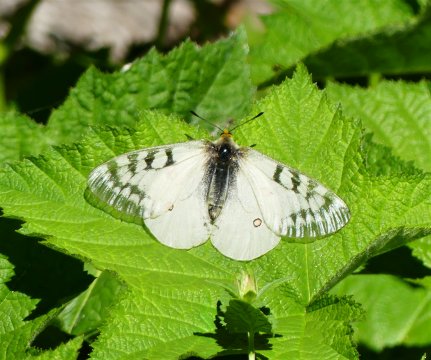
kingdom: Animalia
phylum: Arthropoda
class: Insecta
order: Lepidoptera
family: Papilionidae
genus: Parnassius
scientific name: Parnassius clodius
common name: Clodius Parnassian
